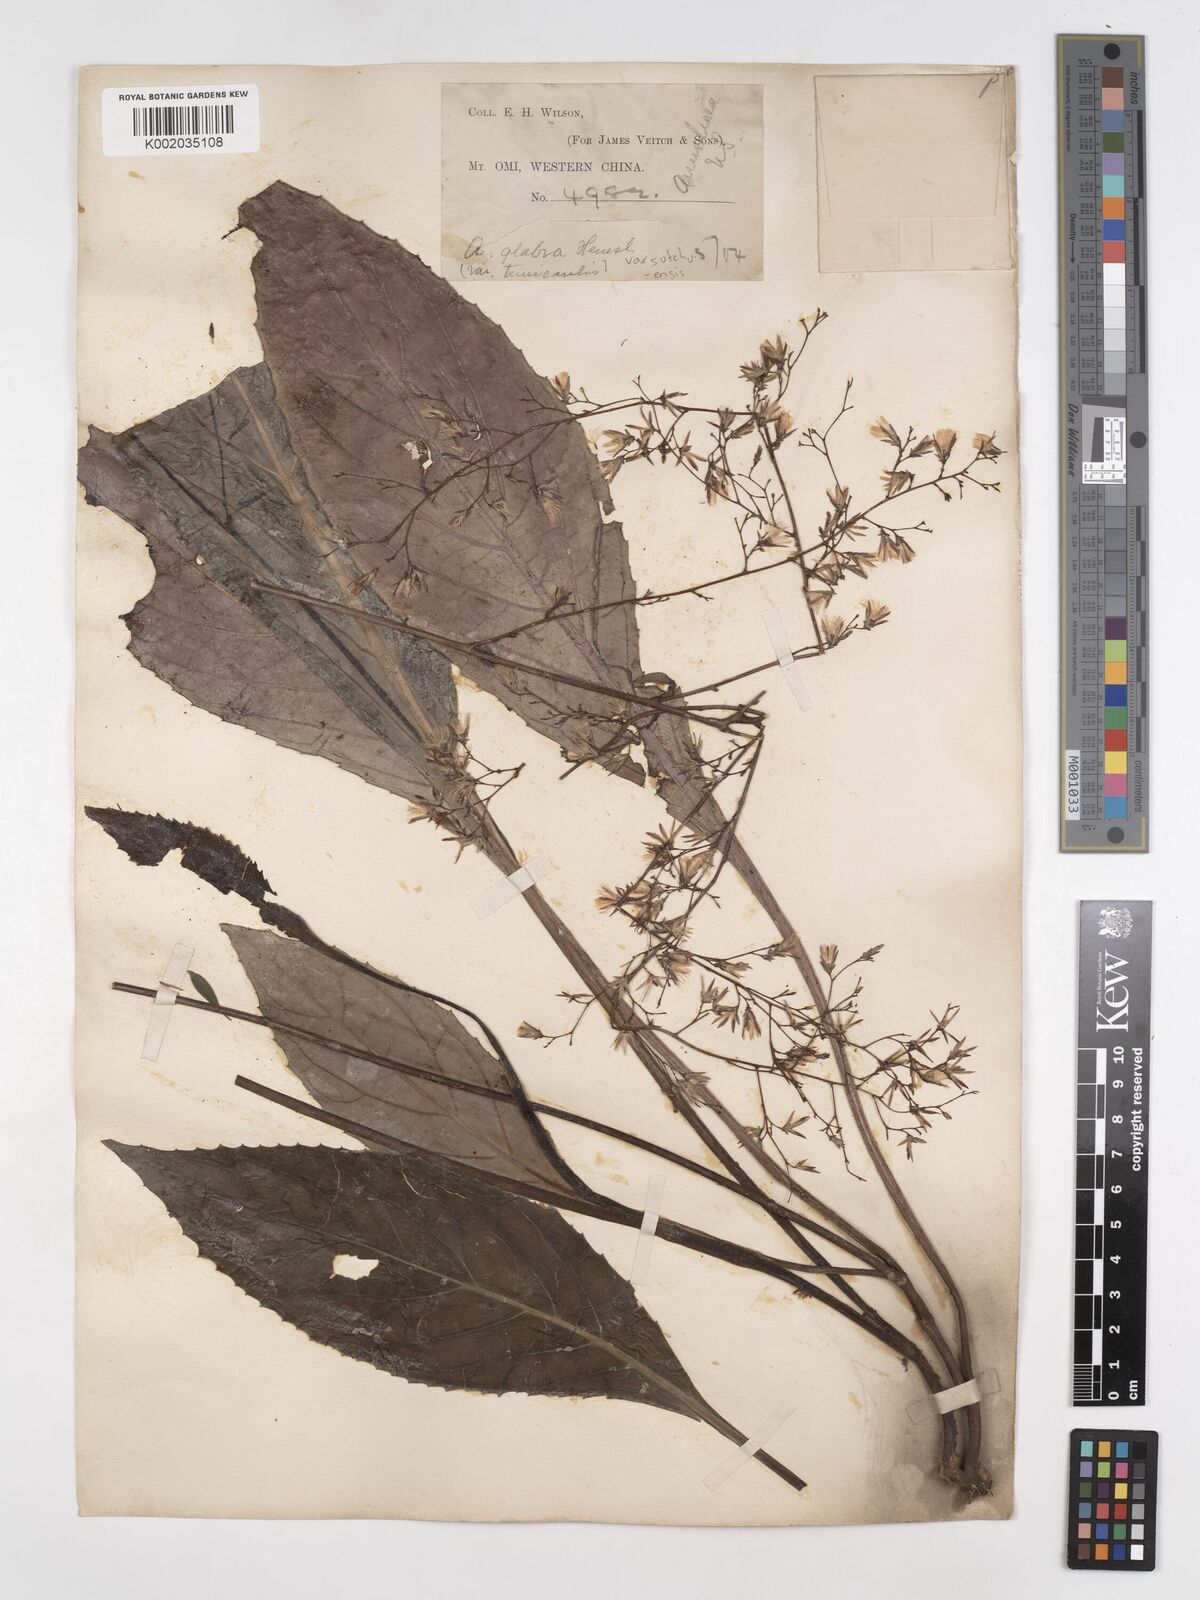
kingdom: Plantae
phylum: Tracheophyta
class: Magnoliopsida
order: Asterales
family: Asteraceae
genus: Ainsliaea
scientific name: Ainsliaea glabra
